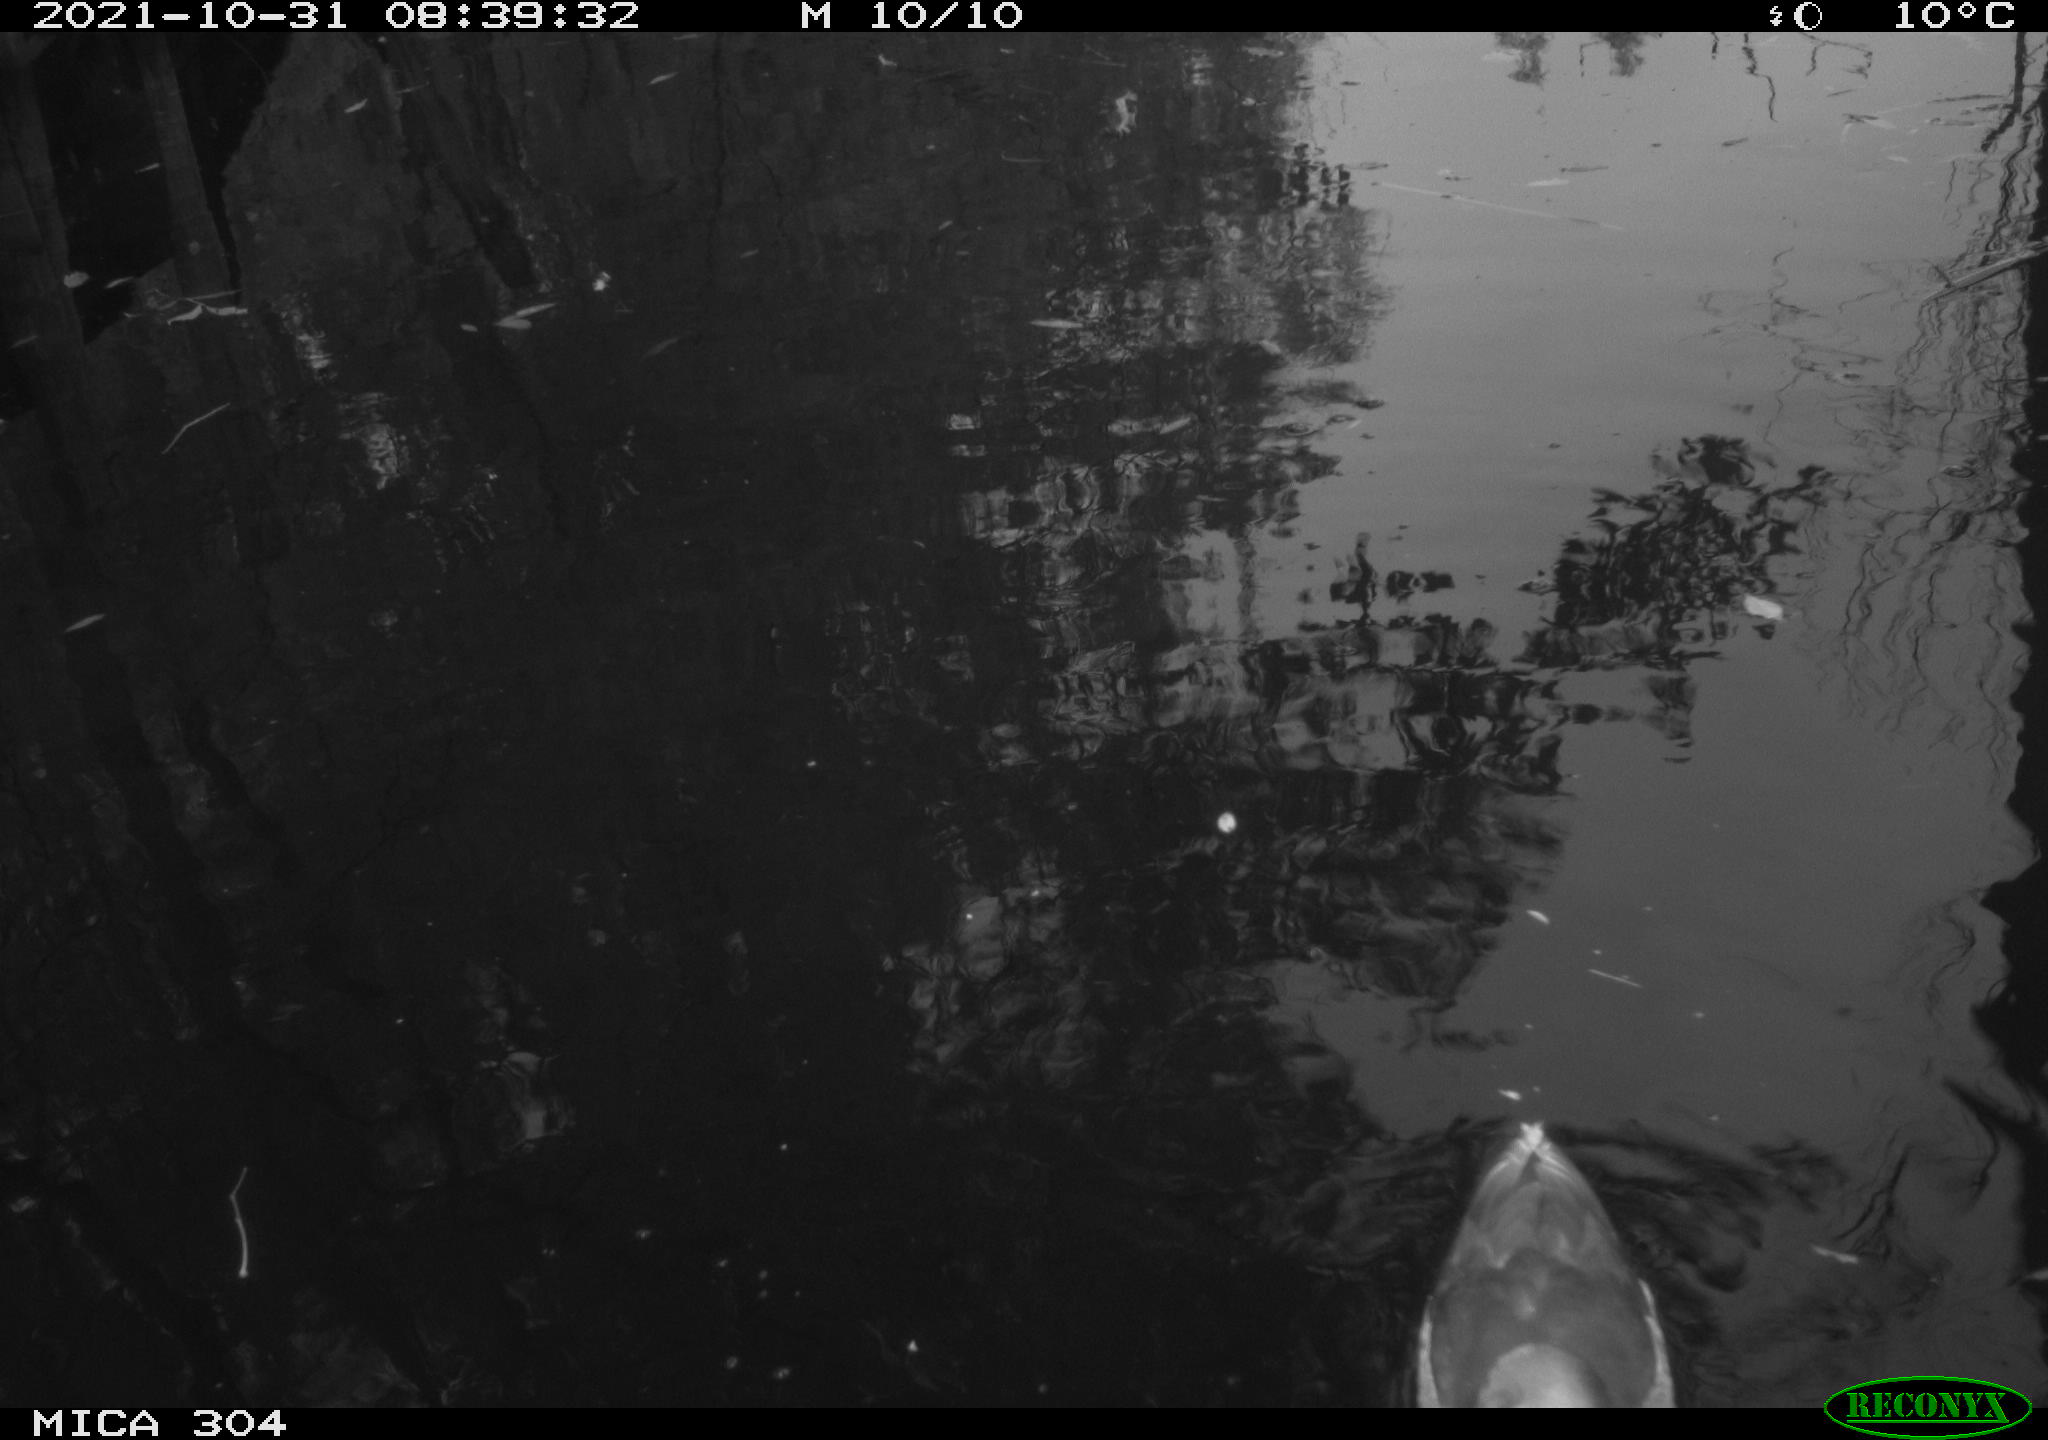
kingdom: Animalia
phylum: Chordata
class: Aves
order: Gruiformes
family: Rallidae
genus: Gallinula
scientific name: Gallinula chloropus
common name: Common moorhen
